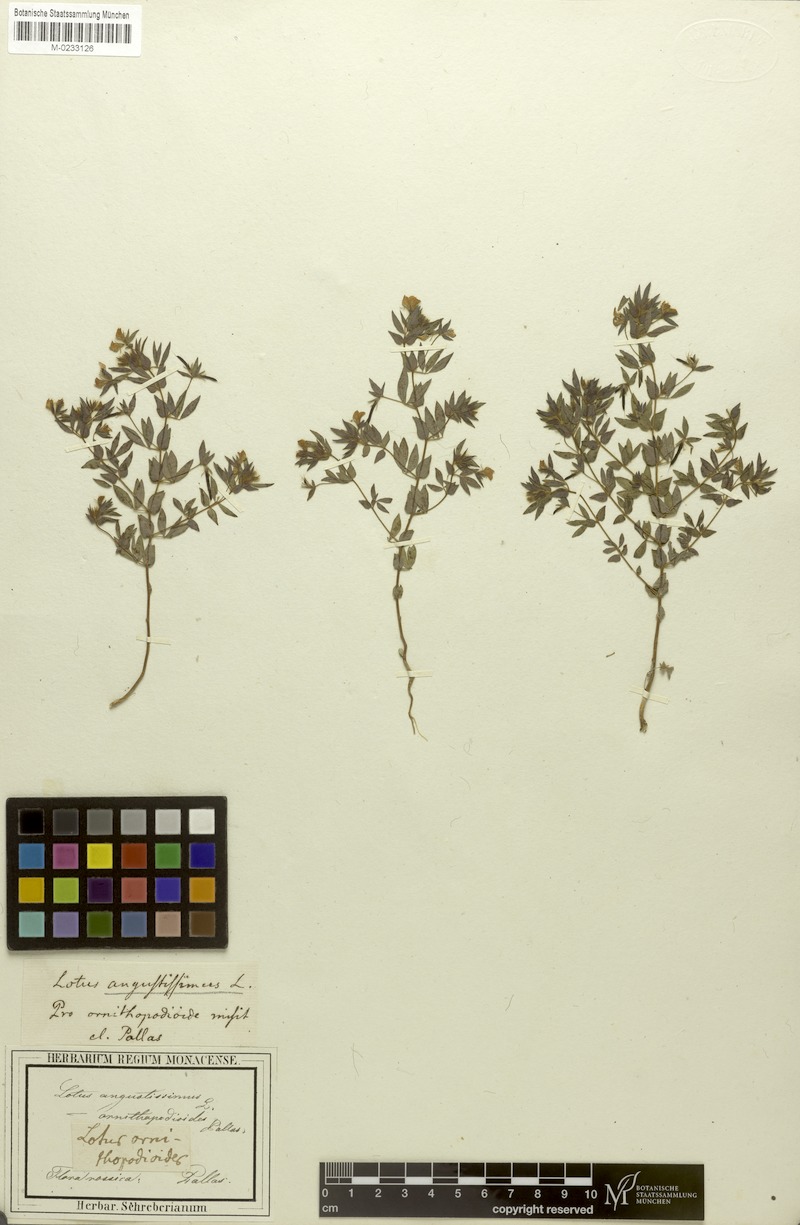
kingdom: Plantae
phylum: Tracheophyta
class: Magnoliopsida
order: Fabales
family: Fabaceae
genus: Lotus
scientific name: Lotus angustissimus
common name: Slender bird's-foot trefoil
